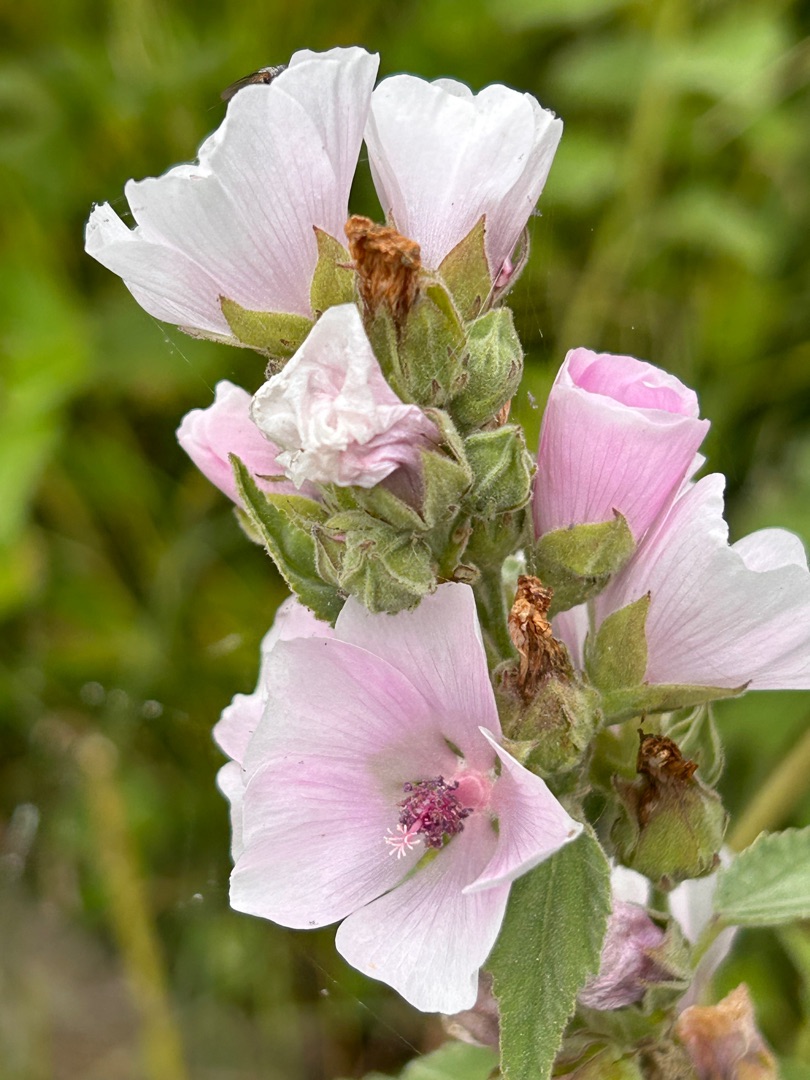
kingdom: Plantae
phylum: Tracheophyta
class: Magnoliopsida
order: Malvales
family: Malvaceae
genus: Althaea
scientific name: Althaea officinalis
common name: Lægestokrose
